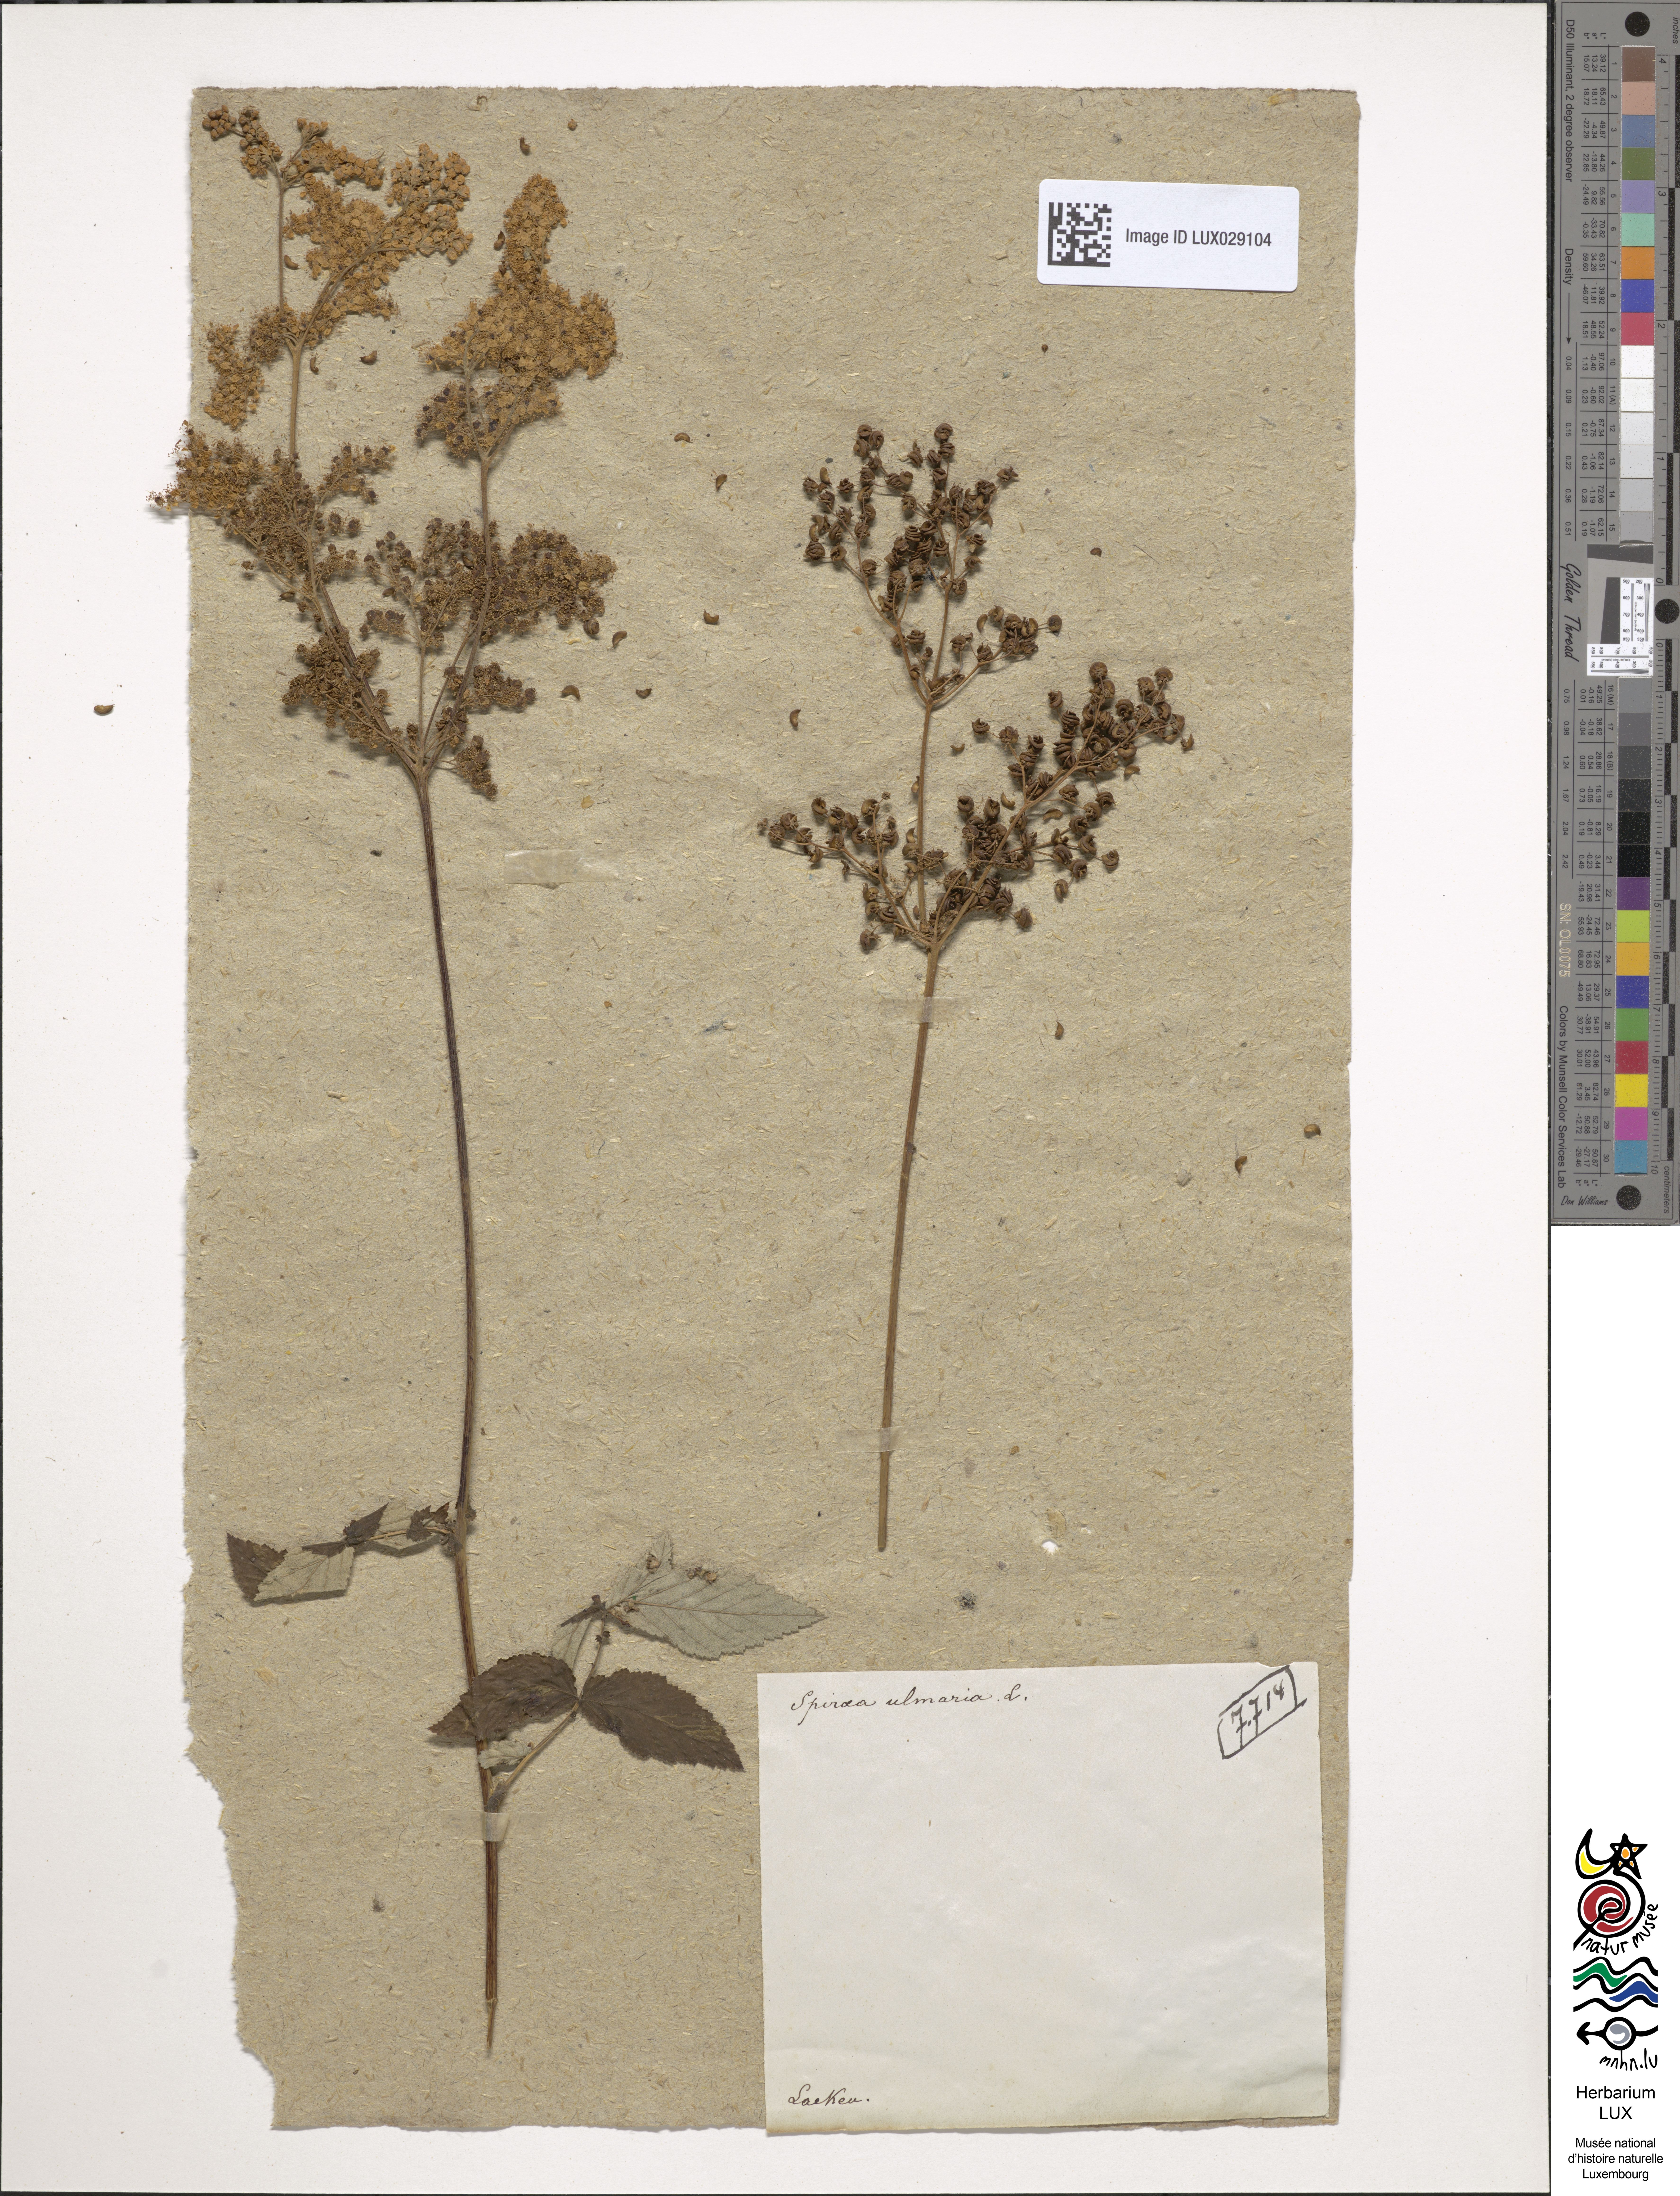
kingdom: Plantae
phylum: Tracheophyta
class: Magnoliopsida
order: Rosales
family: Rosaceae
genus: Filipendula
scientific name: Filipendula ulmaria
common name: Meadowsweet
